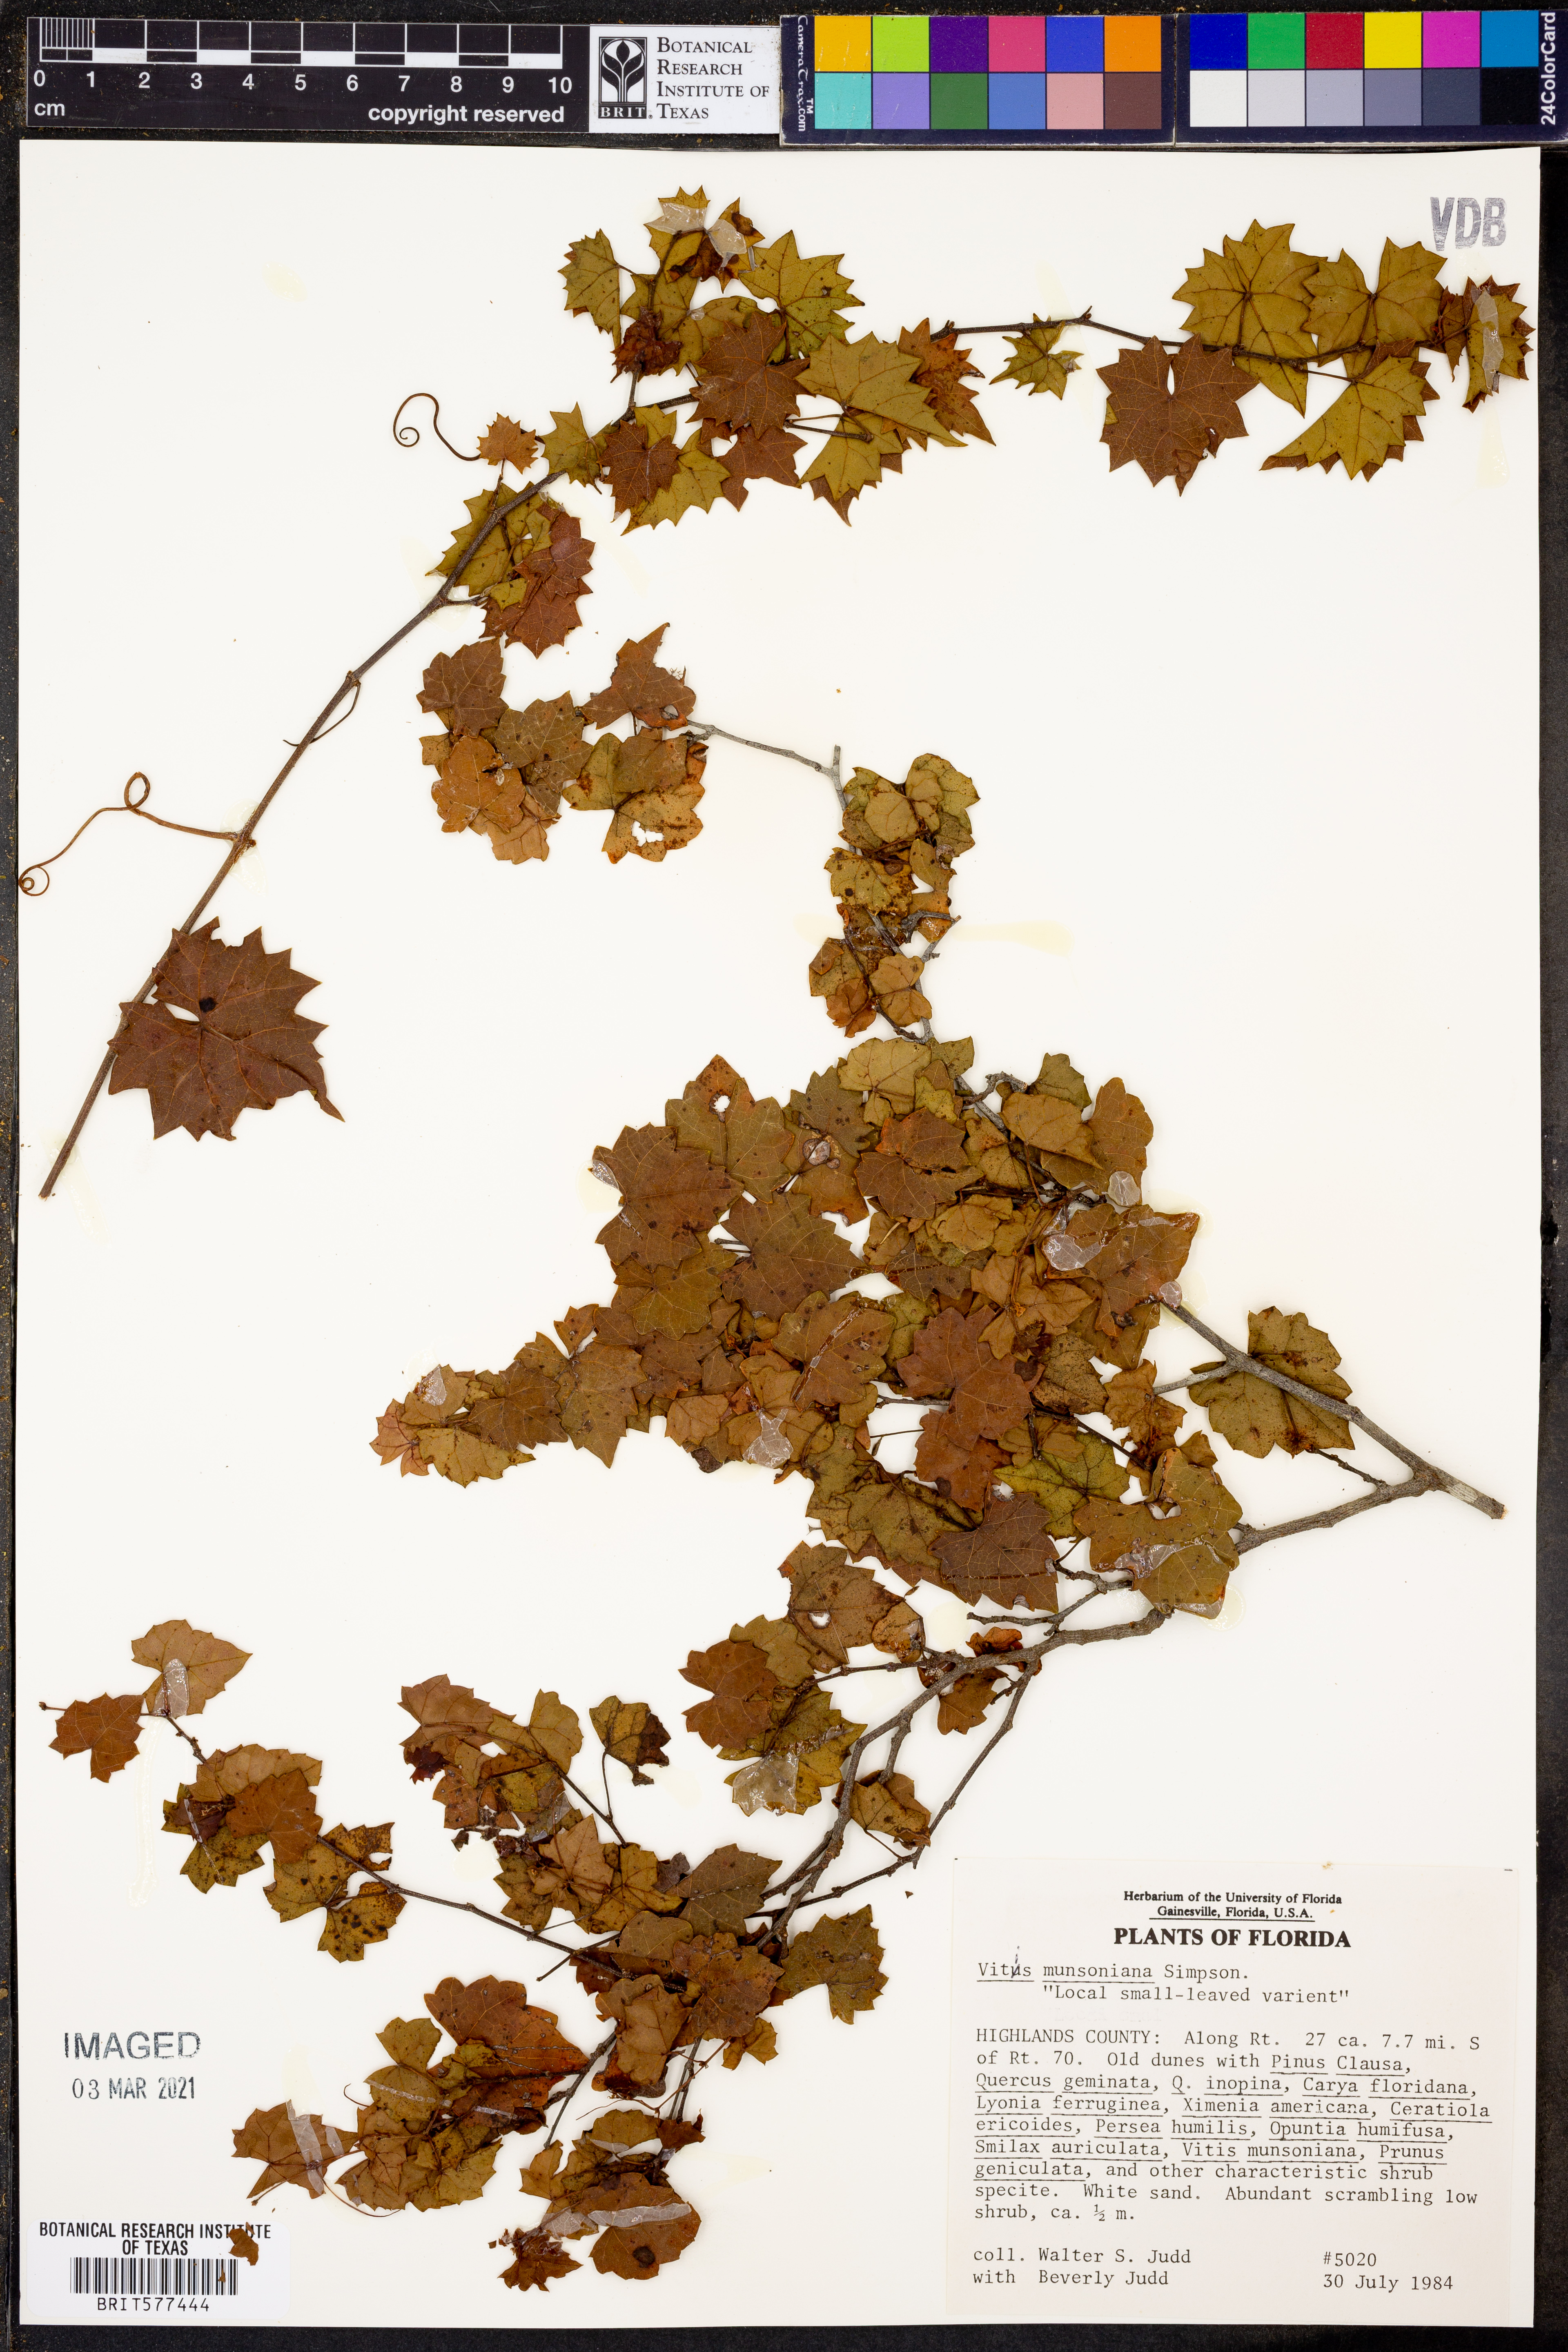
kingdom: Plantae
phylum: Tracheophyta
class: Magnoliopsida
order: Vitales
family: Vitaceae
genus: Vitis
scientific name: Vitis rotundifolia
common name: Muscadine grape
